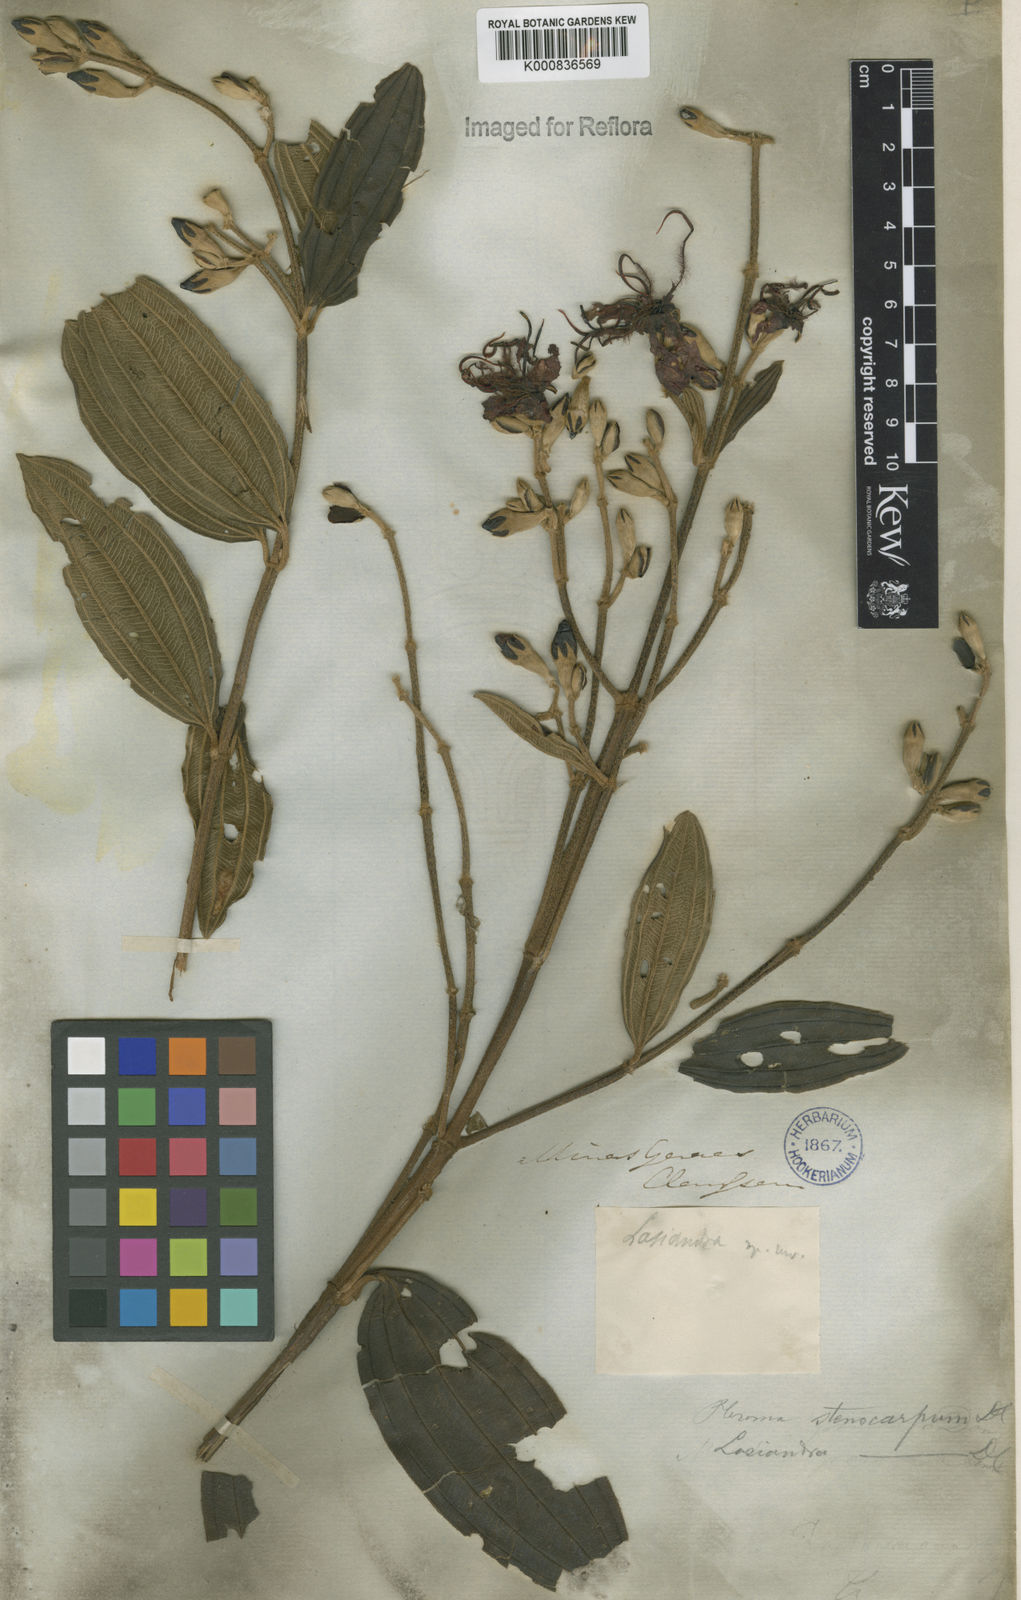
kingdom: Plantae
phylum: Tracheophyta
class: Magnoliopsida
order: Myrtales
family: Melastomataceae
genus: Pleroma
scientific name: Pleroma stenocarpum
